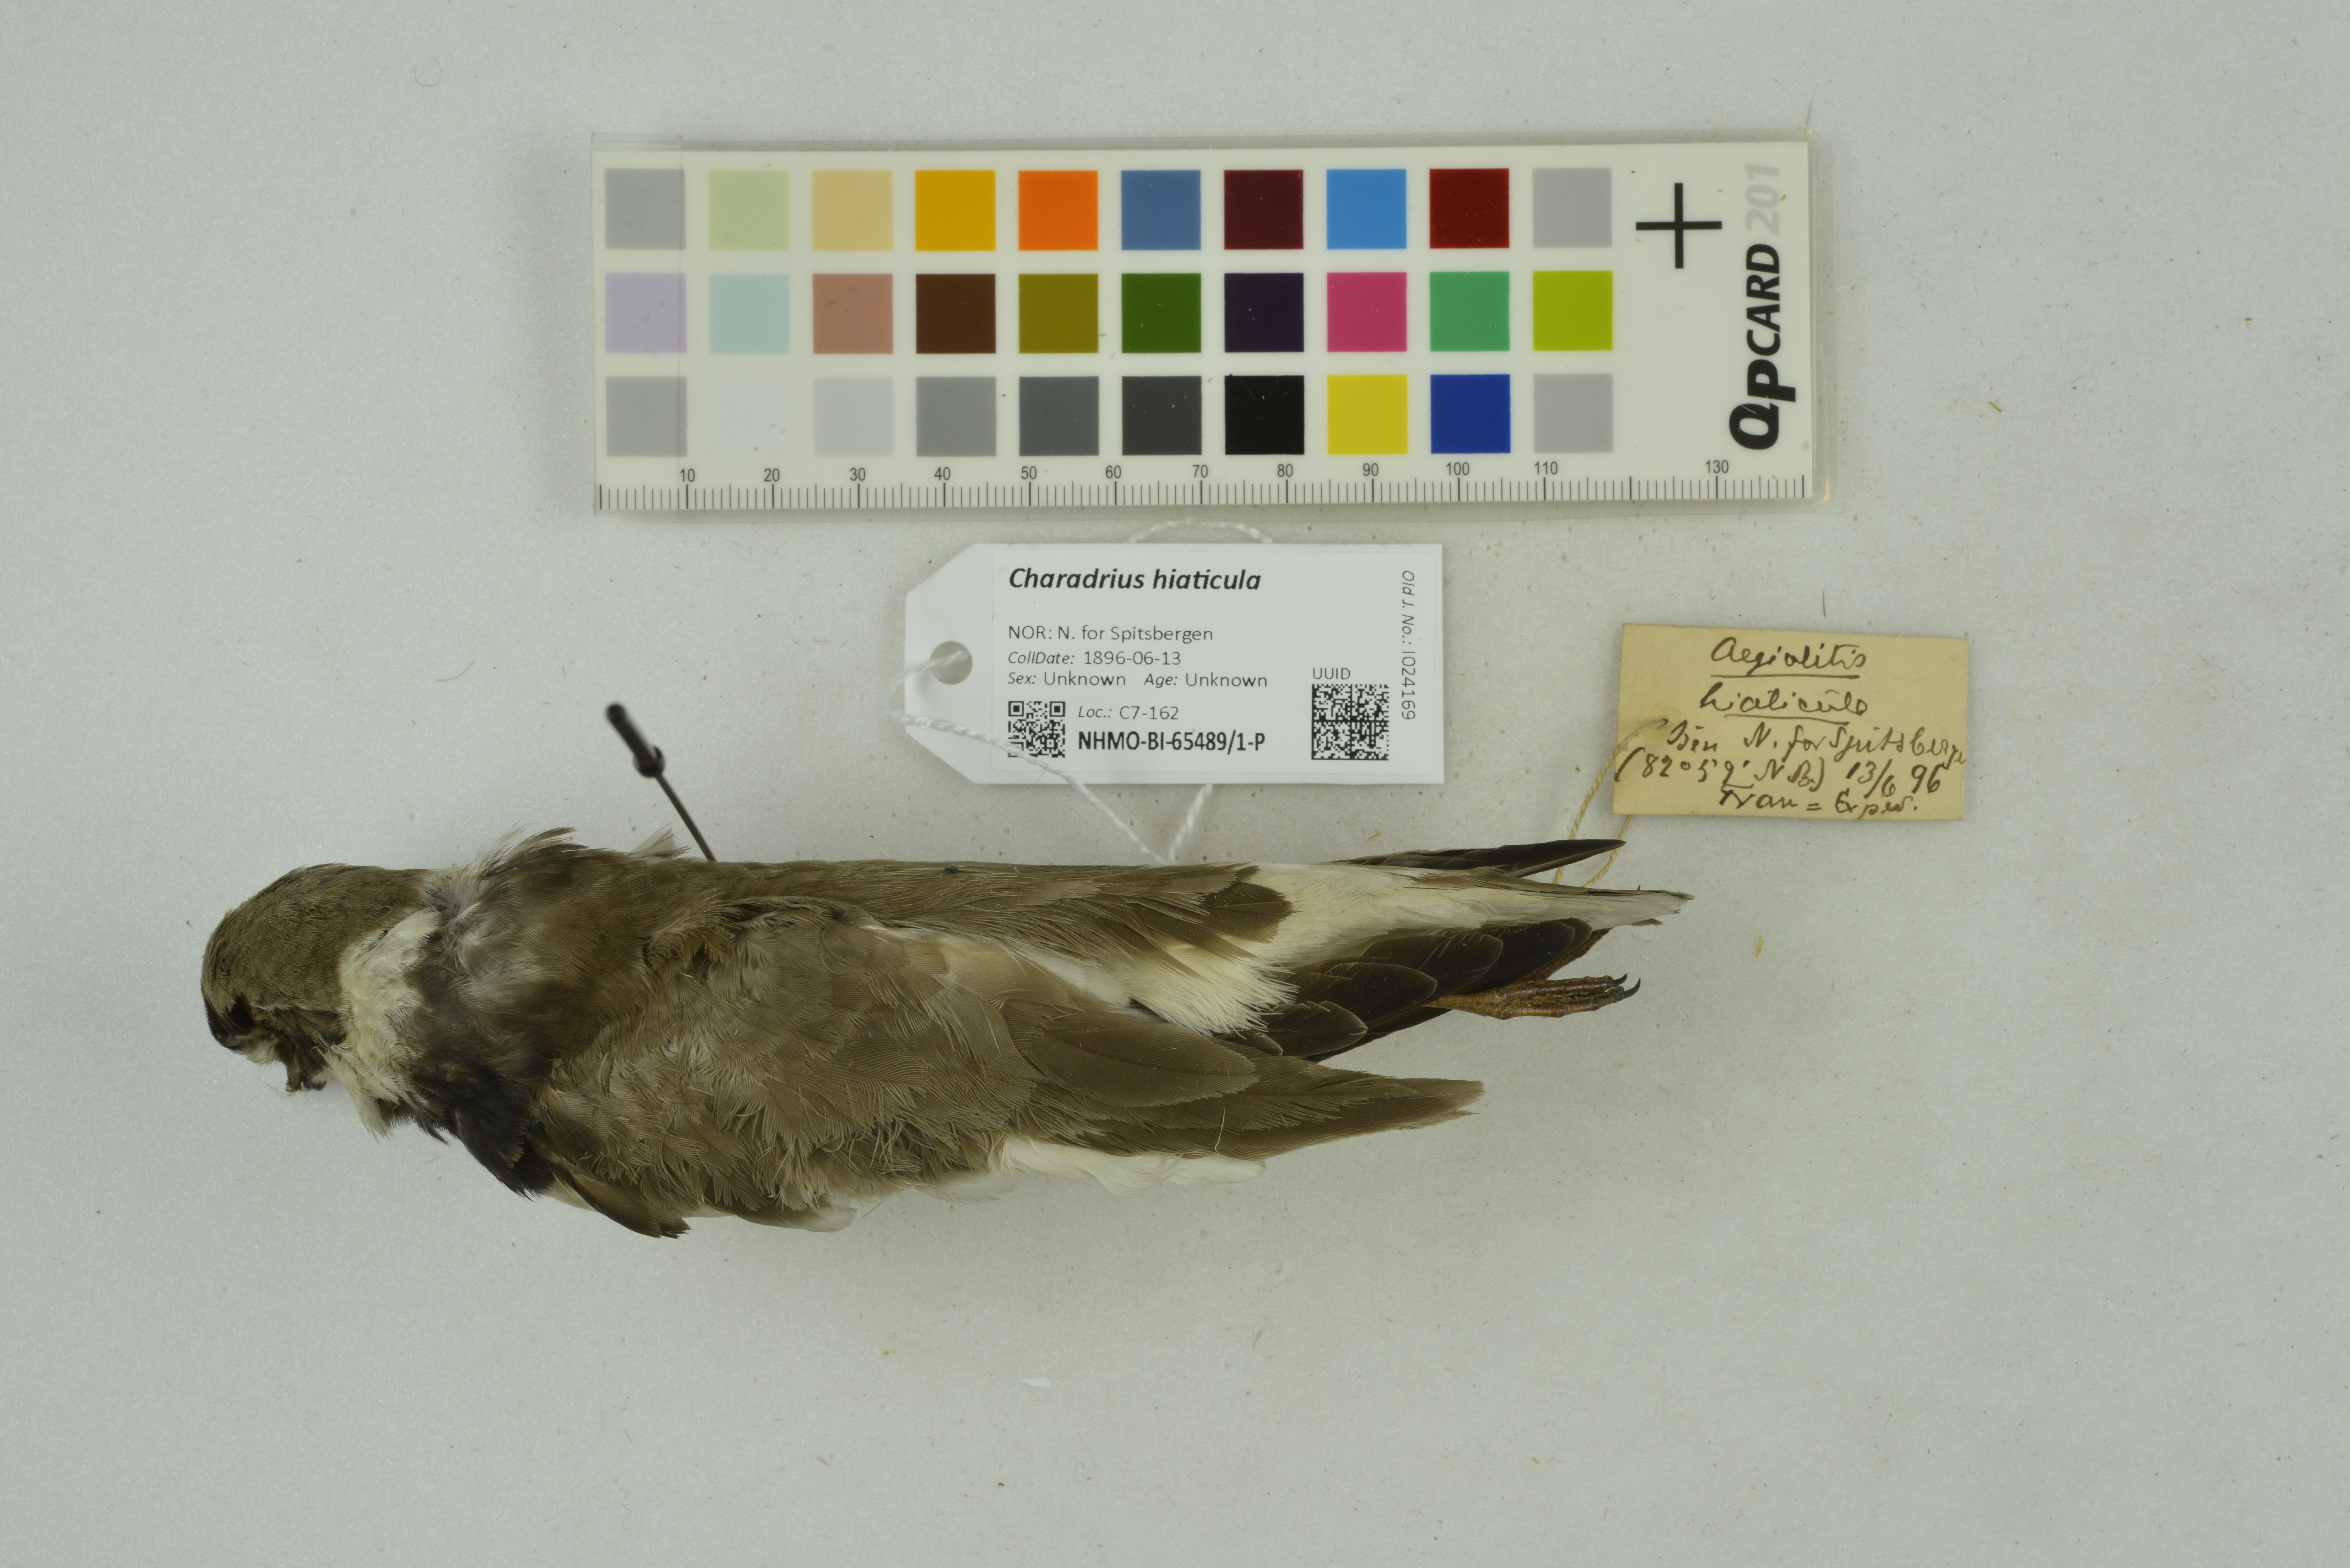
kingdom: Animalia
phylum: Chordata
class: Aves
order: Charadriiformes
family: Charadriidae
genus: Charadrius
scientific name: Charadrius hiaticula
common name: Common ringed plover
